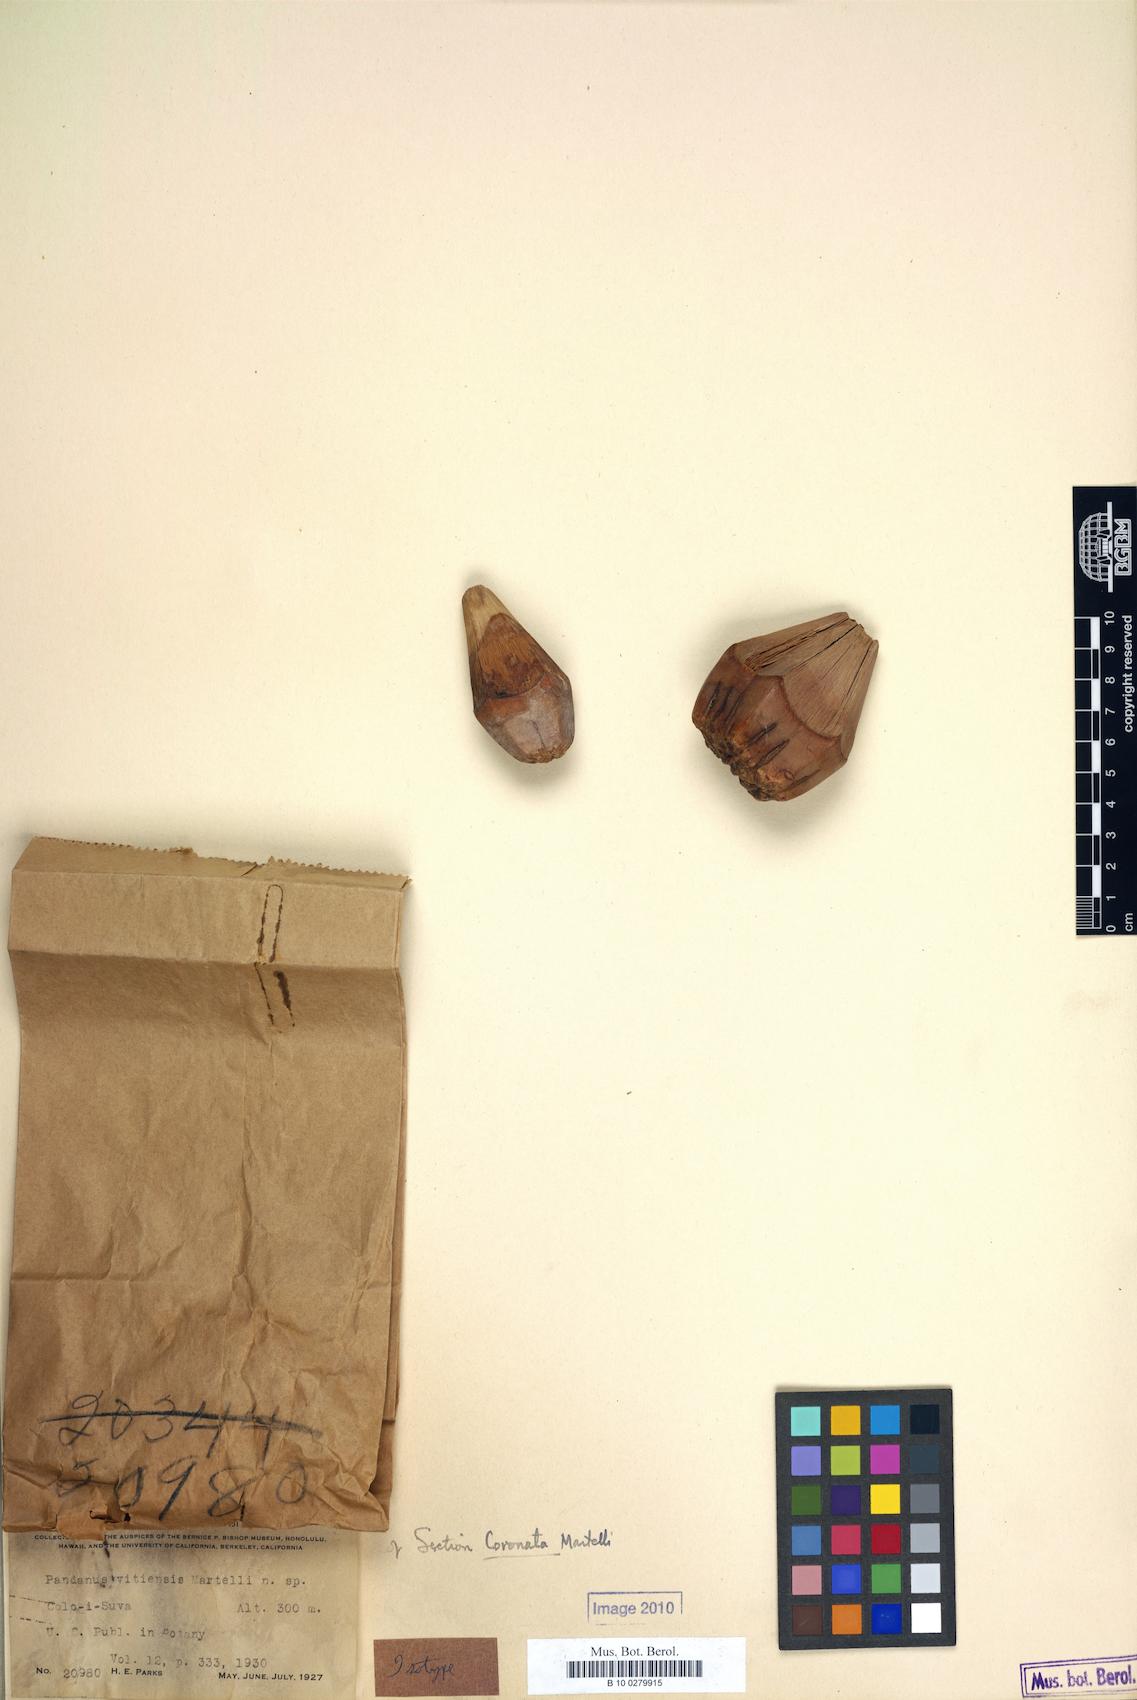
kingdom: Plantae
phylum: Tracheophyta
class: Liliopsida
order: Pandanales
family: Pandanaceae
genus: Pandanus
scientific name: Pandanus vitiensis
